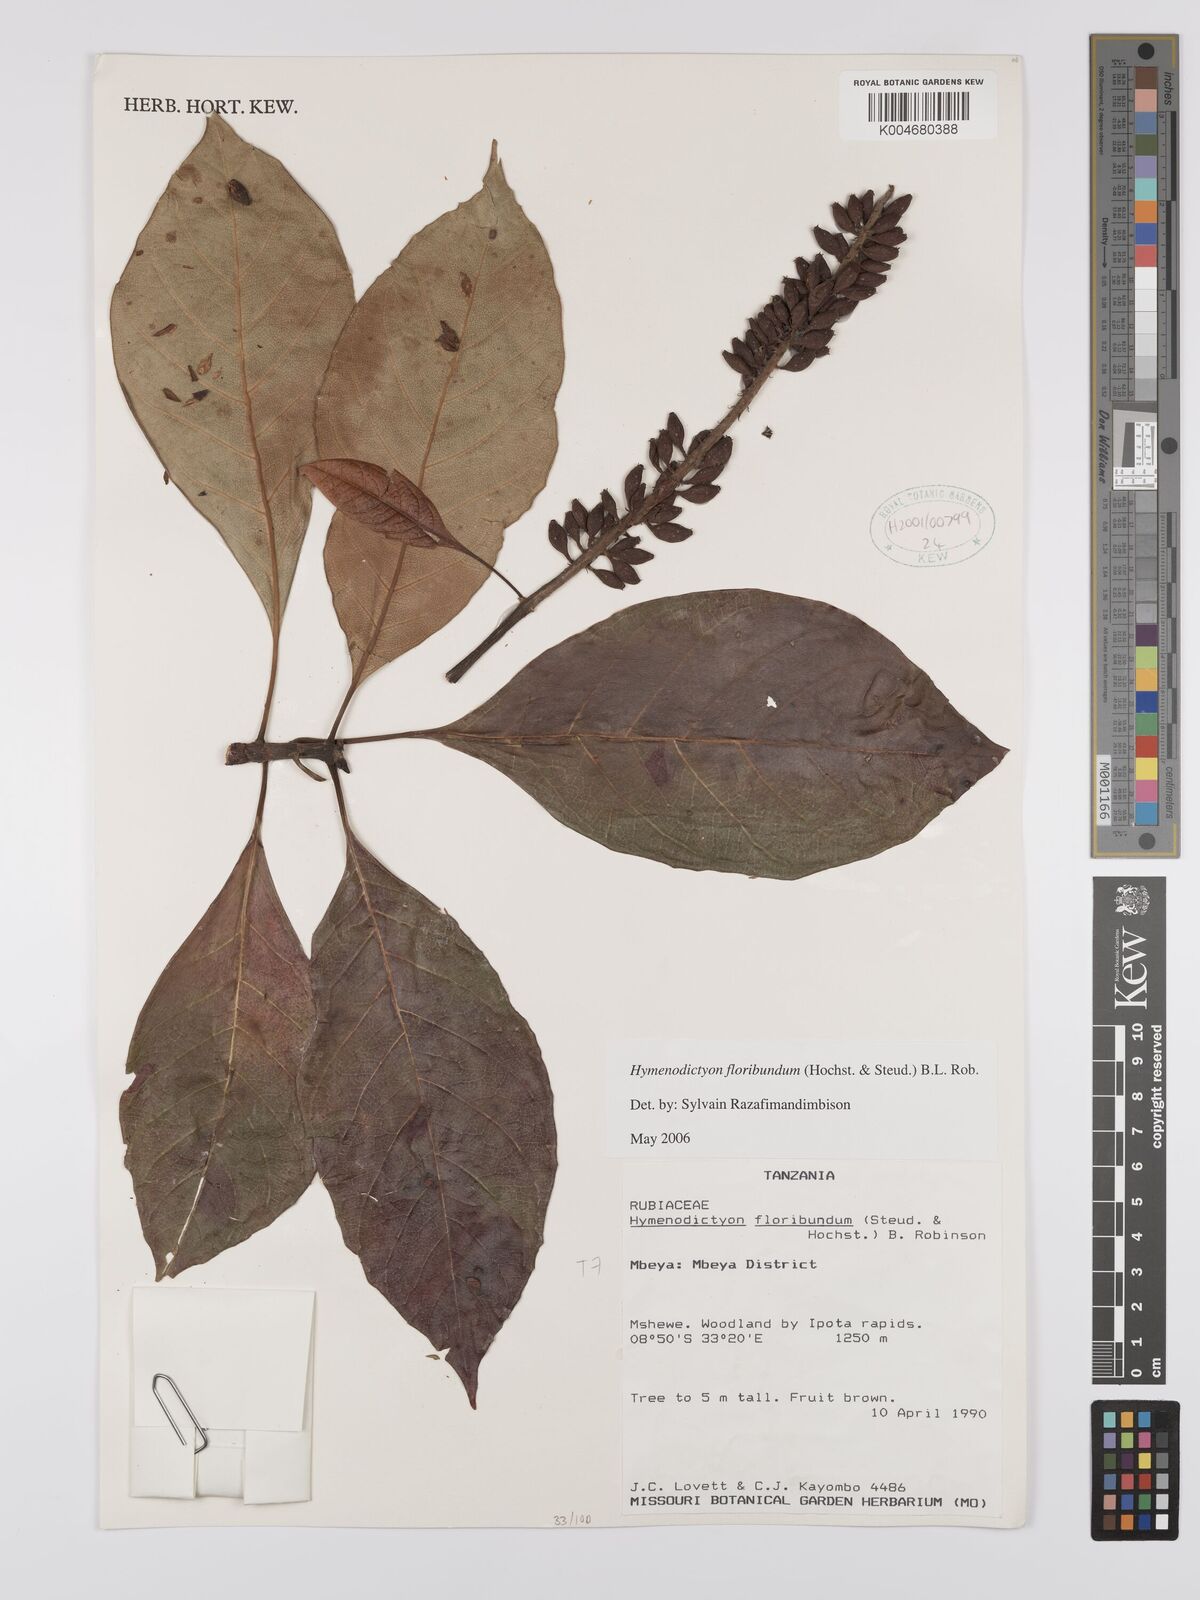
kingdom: Plantae
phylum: Tracheophyta
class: Magnoliopsida
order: Gentianales
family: Rubiaceae
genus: Hymenodictyon
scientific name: Hymenodictyon floribundum
